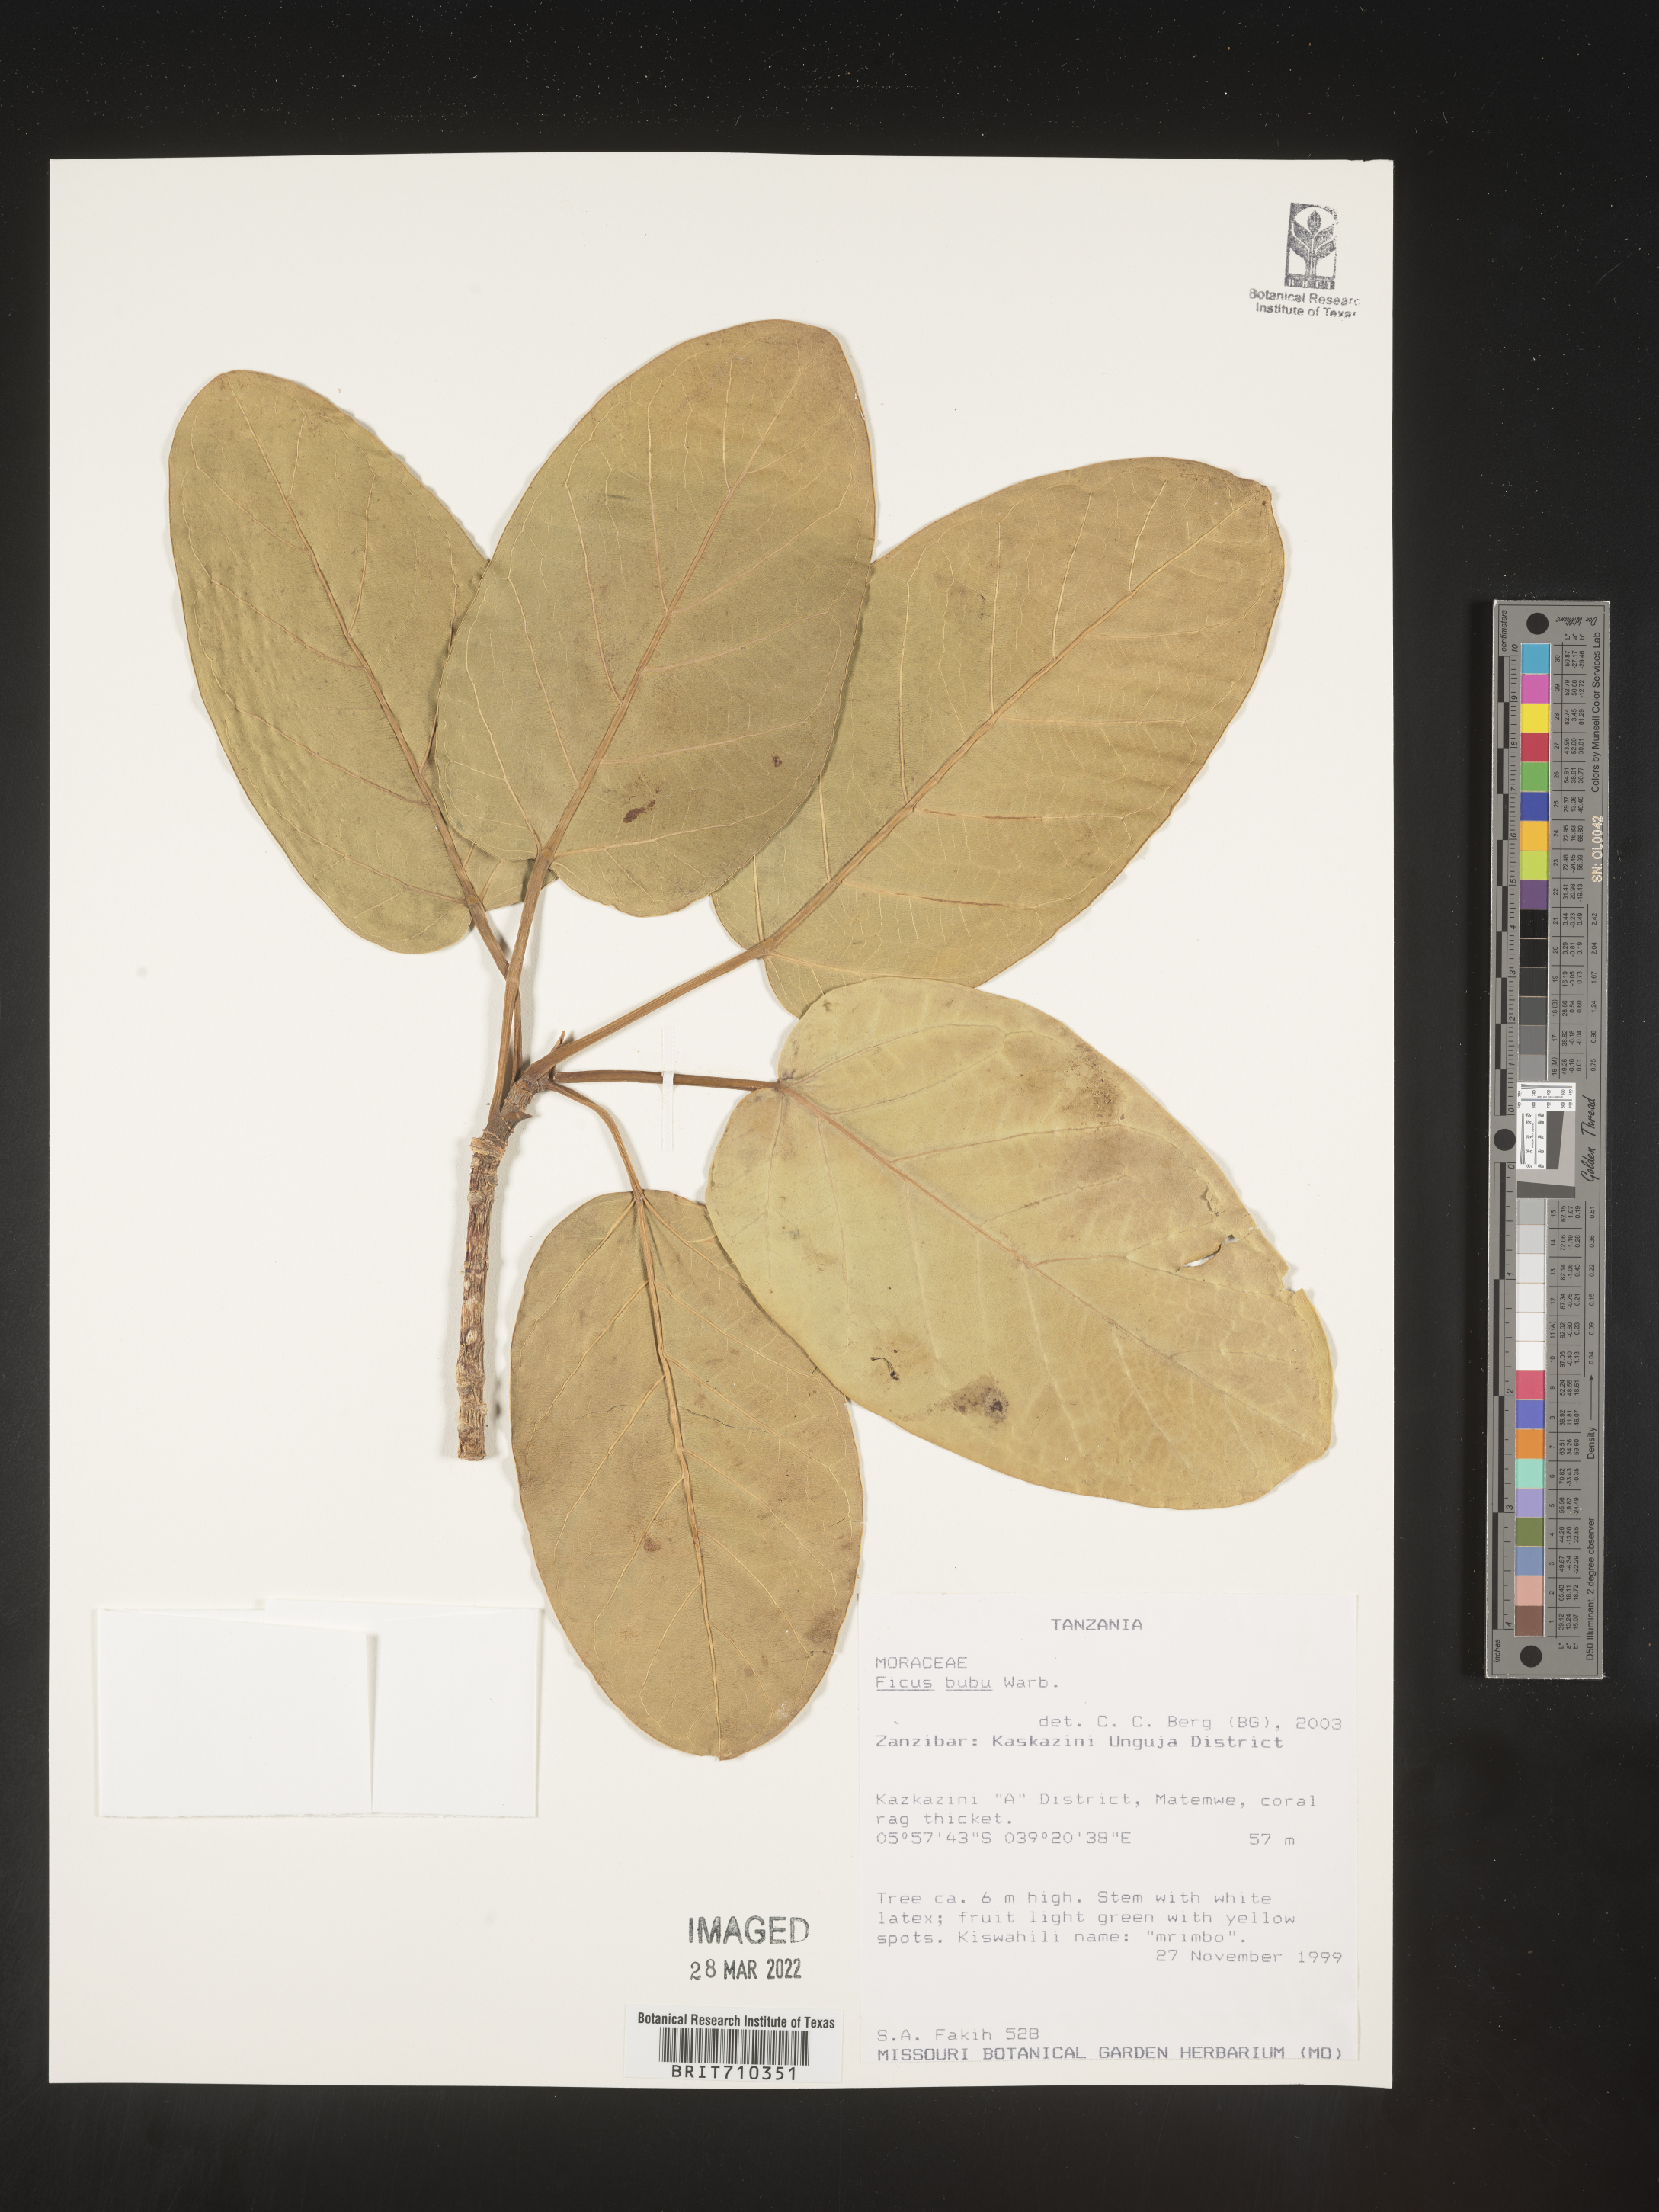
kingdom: Plantae
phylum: Tracheophyta
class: Magnoliopsida
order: Rosales
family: Moraceae
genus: Ficus
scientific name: Ficus
